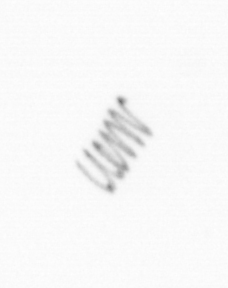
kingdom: Chromista
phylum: Ochrophyta
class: Bacillariophyceae
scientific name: Bacillariophyceae
